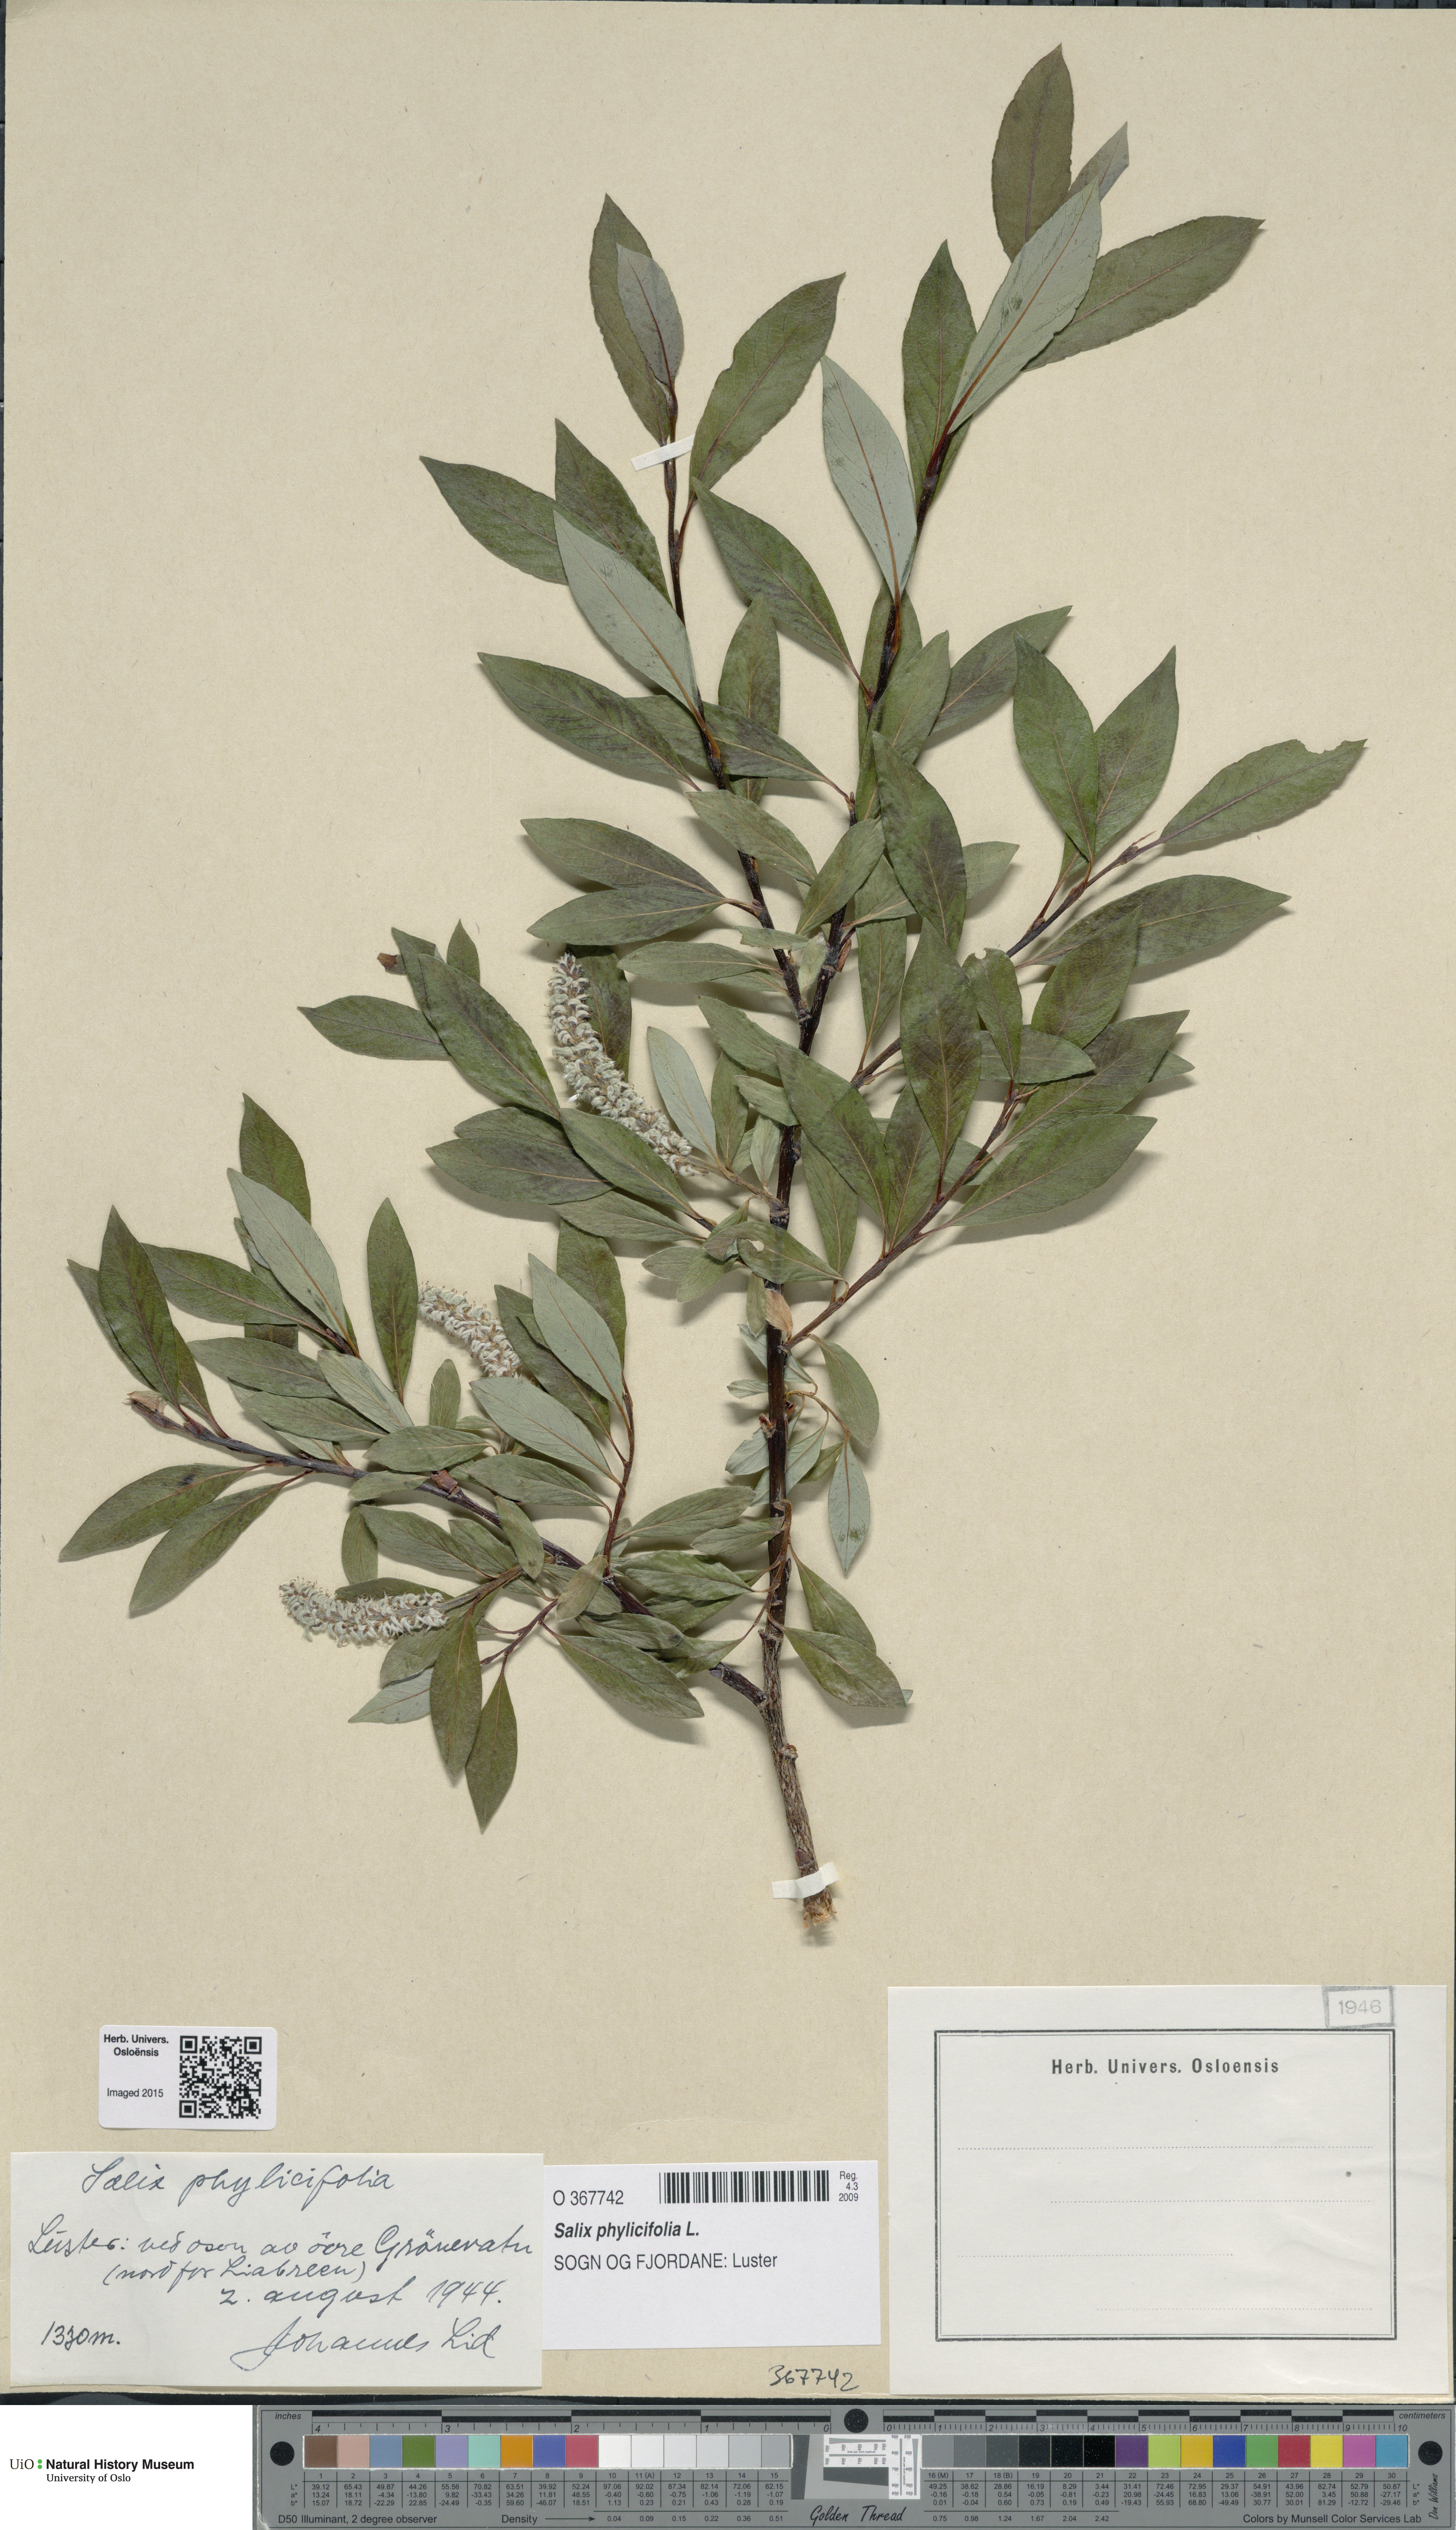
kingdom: Plantae
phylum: Tracheophyta
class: Magnoliopsida
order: Malpighiales
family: Salicaceae
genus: Salix
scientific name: Salix phylicifolia
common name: Tea-leaved willow
